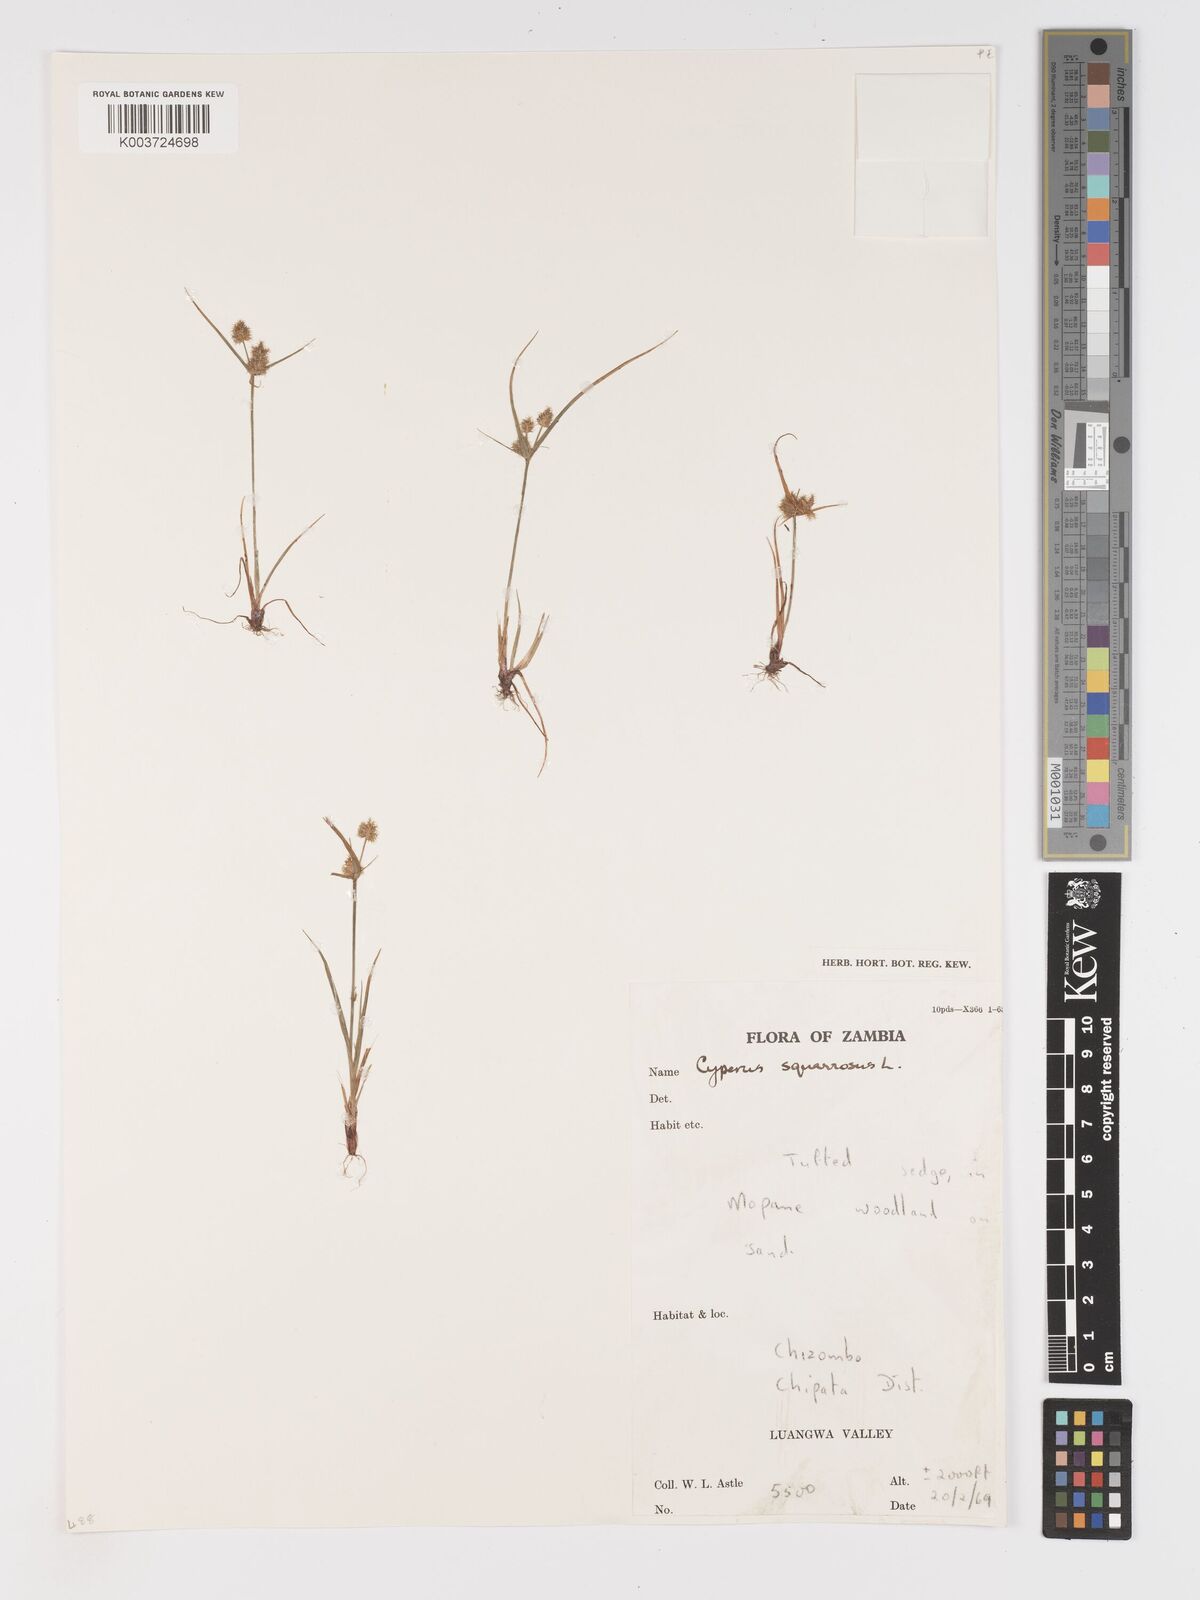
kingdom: Plantae
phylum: Tracheophyta
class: Liliopsida
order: Poales
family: Cyperaceae
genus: Cyperus
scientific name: Cyperus squarrosus
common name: Awned cyperus
